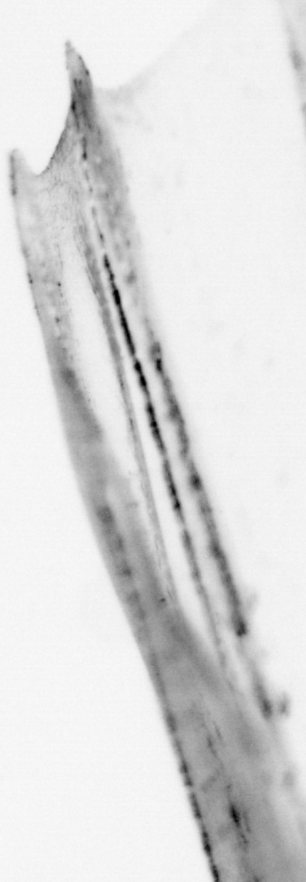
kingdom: Animalia
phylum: Chordata
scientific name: Chordata
